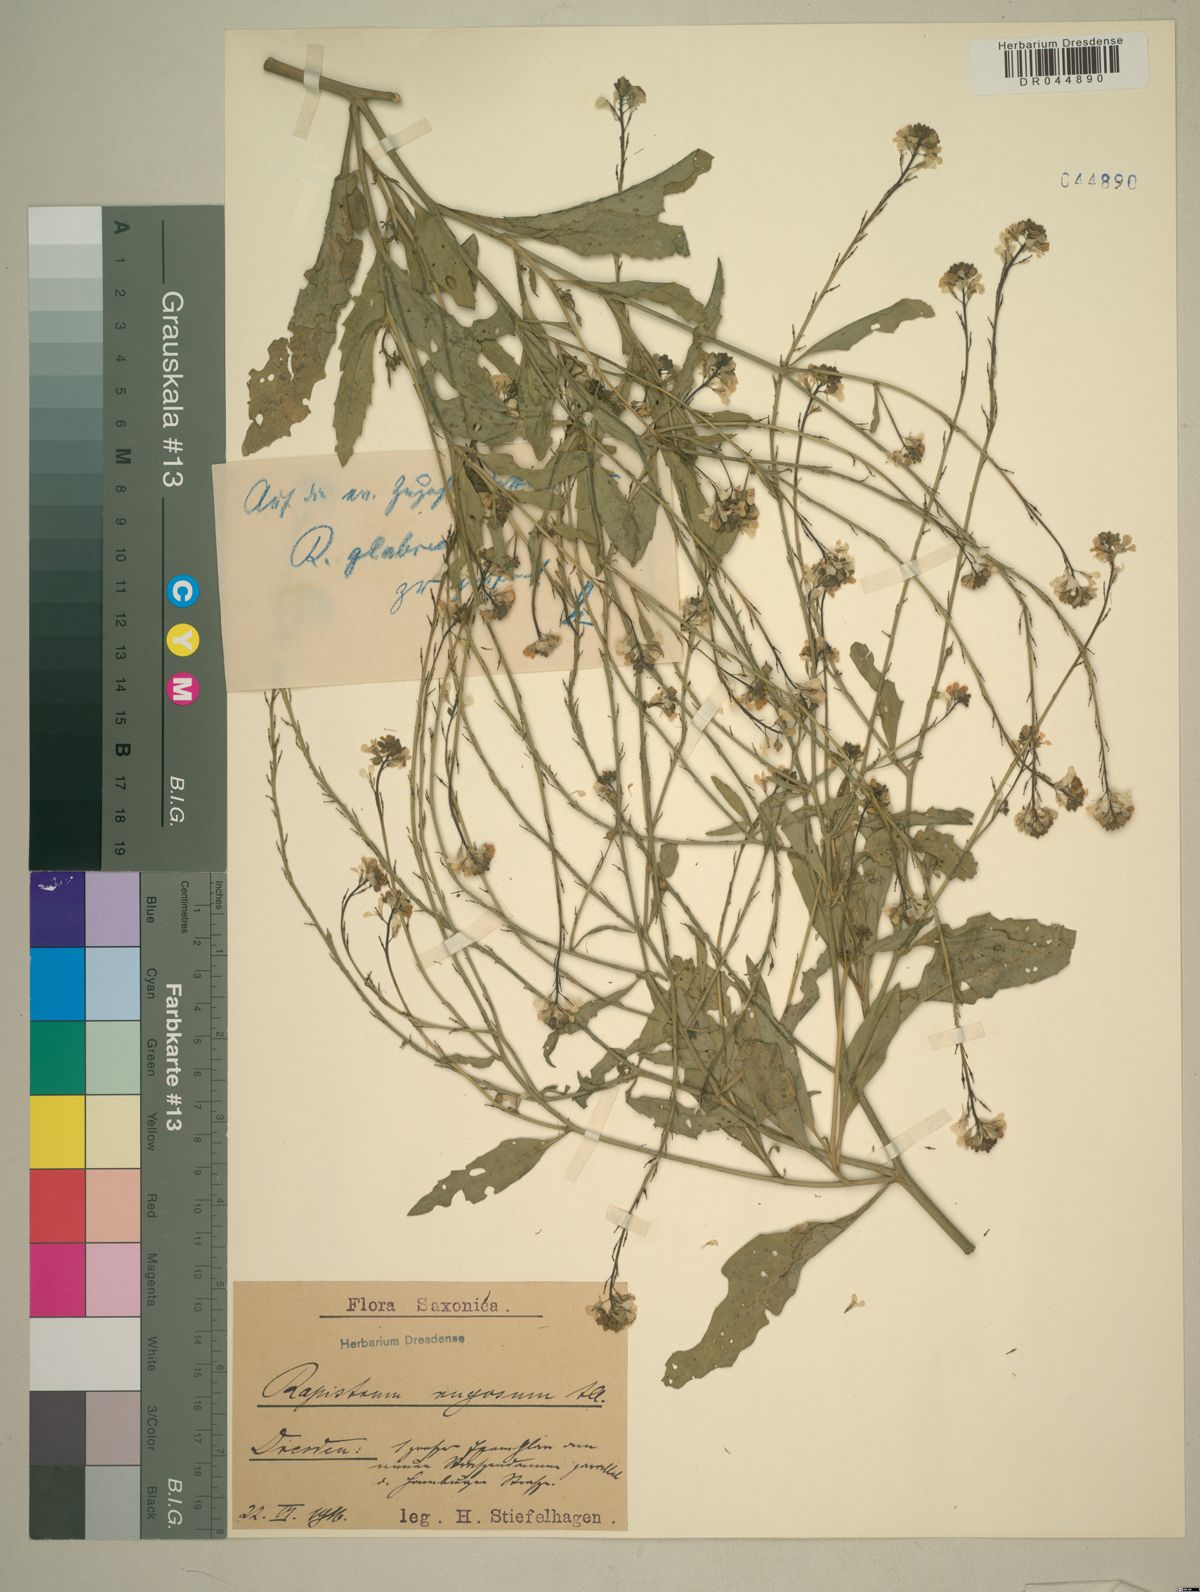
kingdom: Plantae
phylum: Tracheophyta
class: Magnoliopsida
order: Brassicales
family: Brassicaceae
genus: Rapistrum
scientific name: Rapistrum rugosum
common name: Annual bastardcabbage
